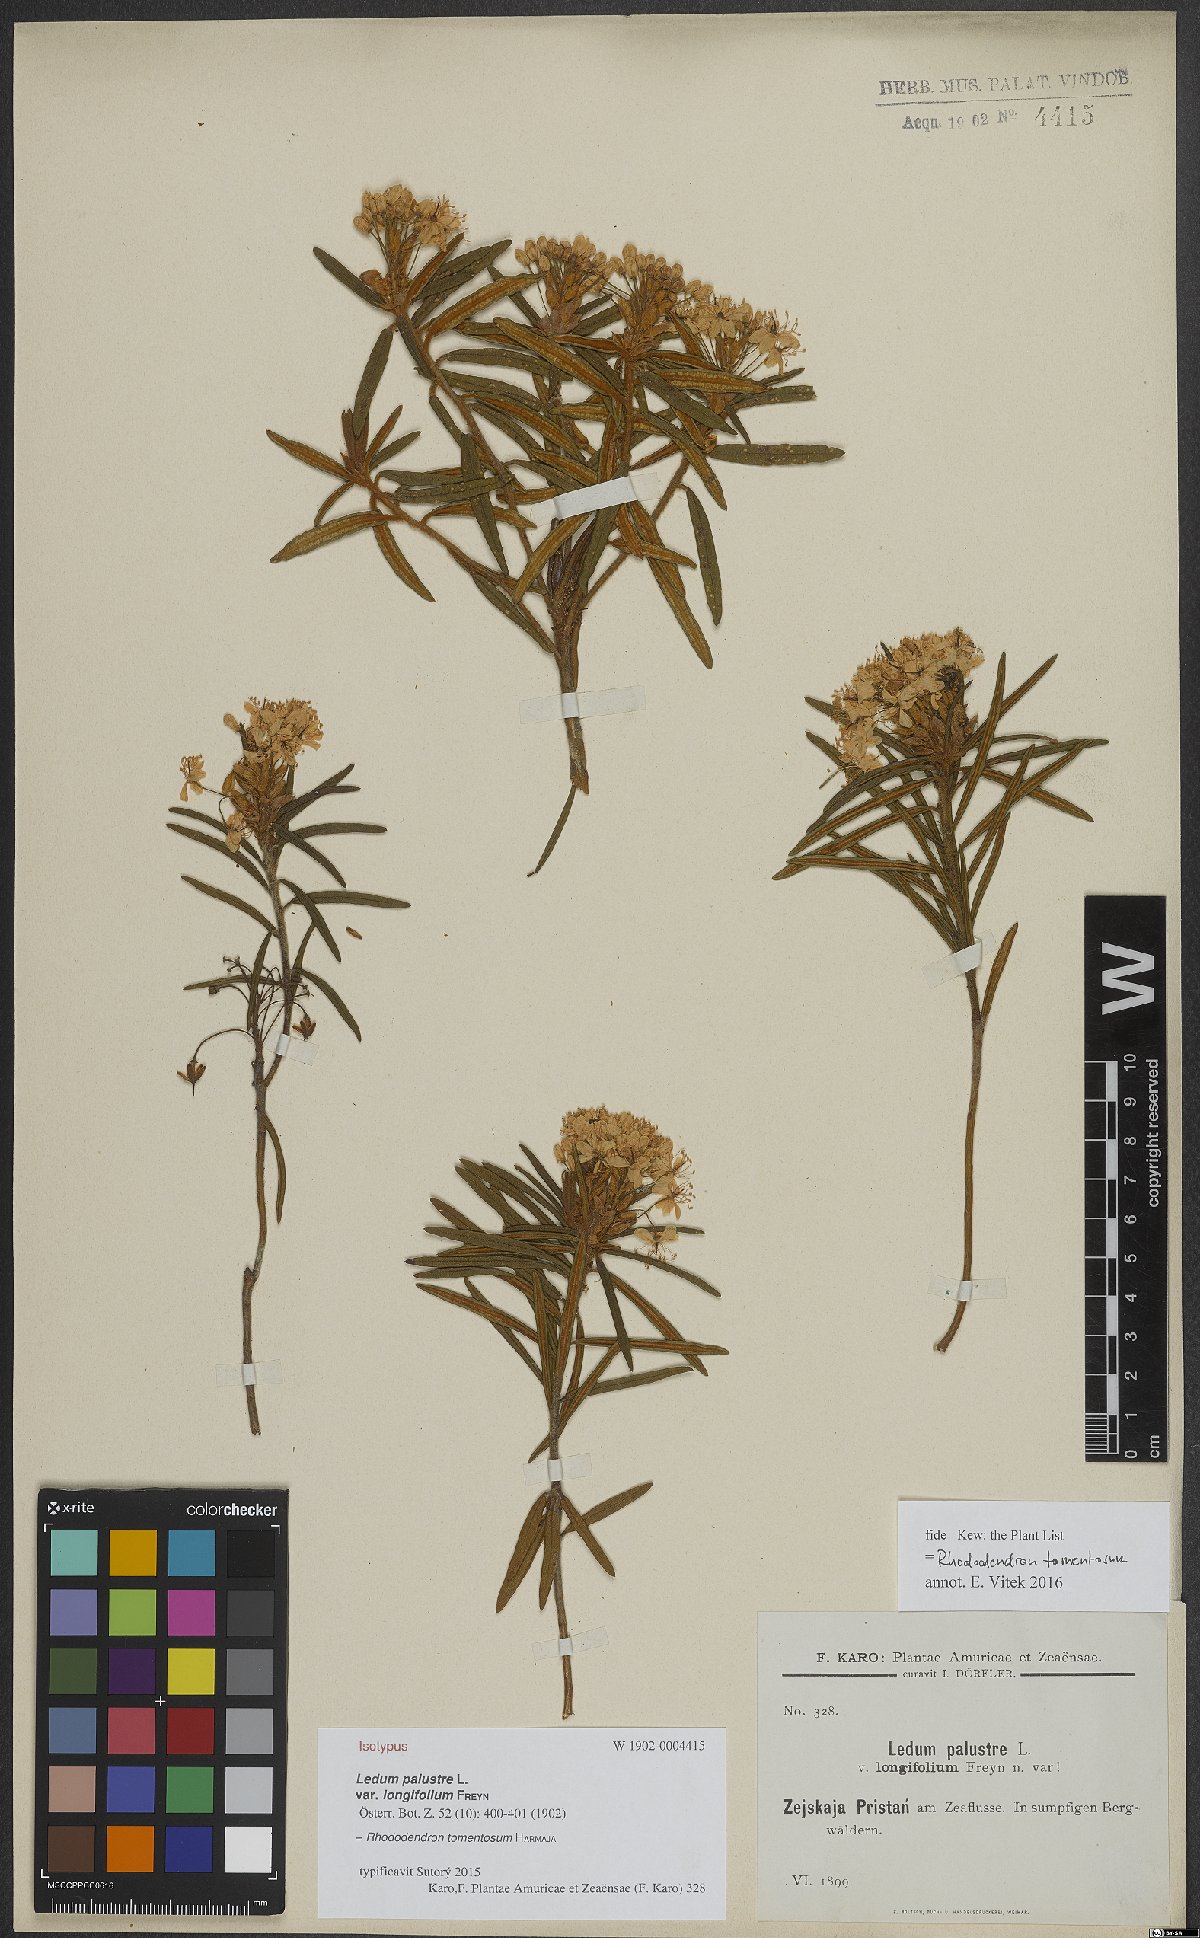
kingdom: Plantae
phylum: Tracheophyta
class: Magnoliopsida
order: Ericales
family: Ericaceae
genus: Rhododendron
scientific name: Rhododendron tomentosum
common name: Marsh labrador tea
